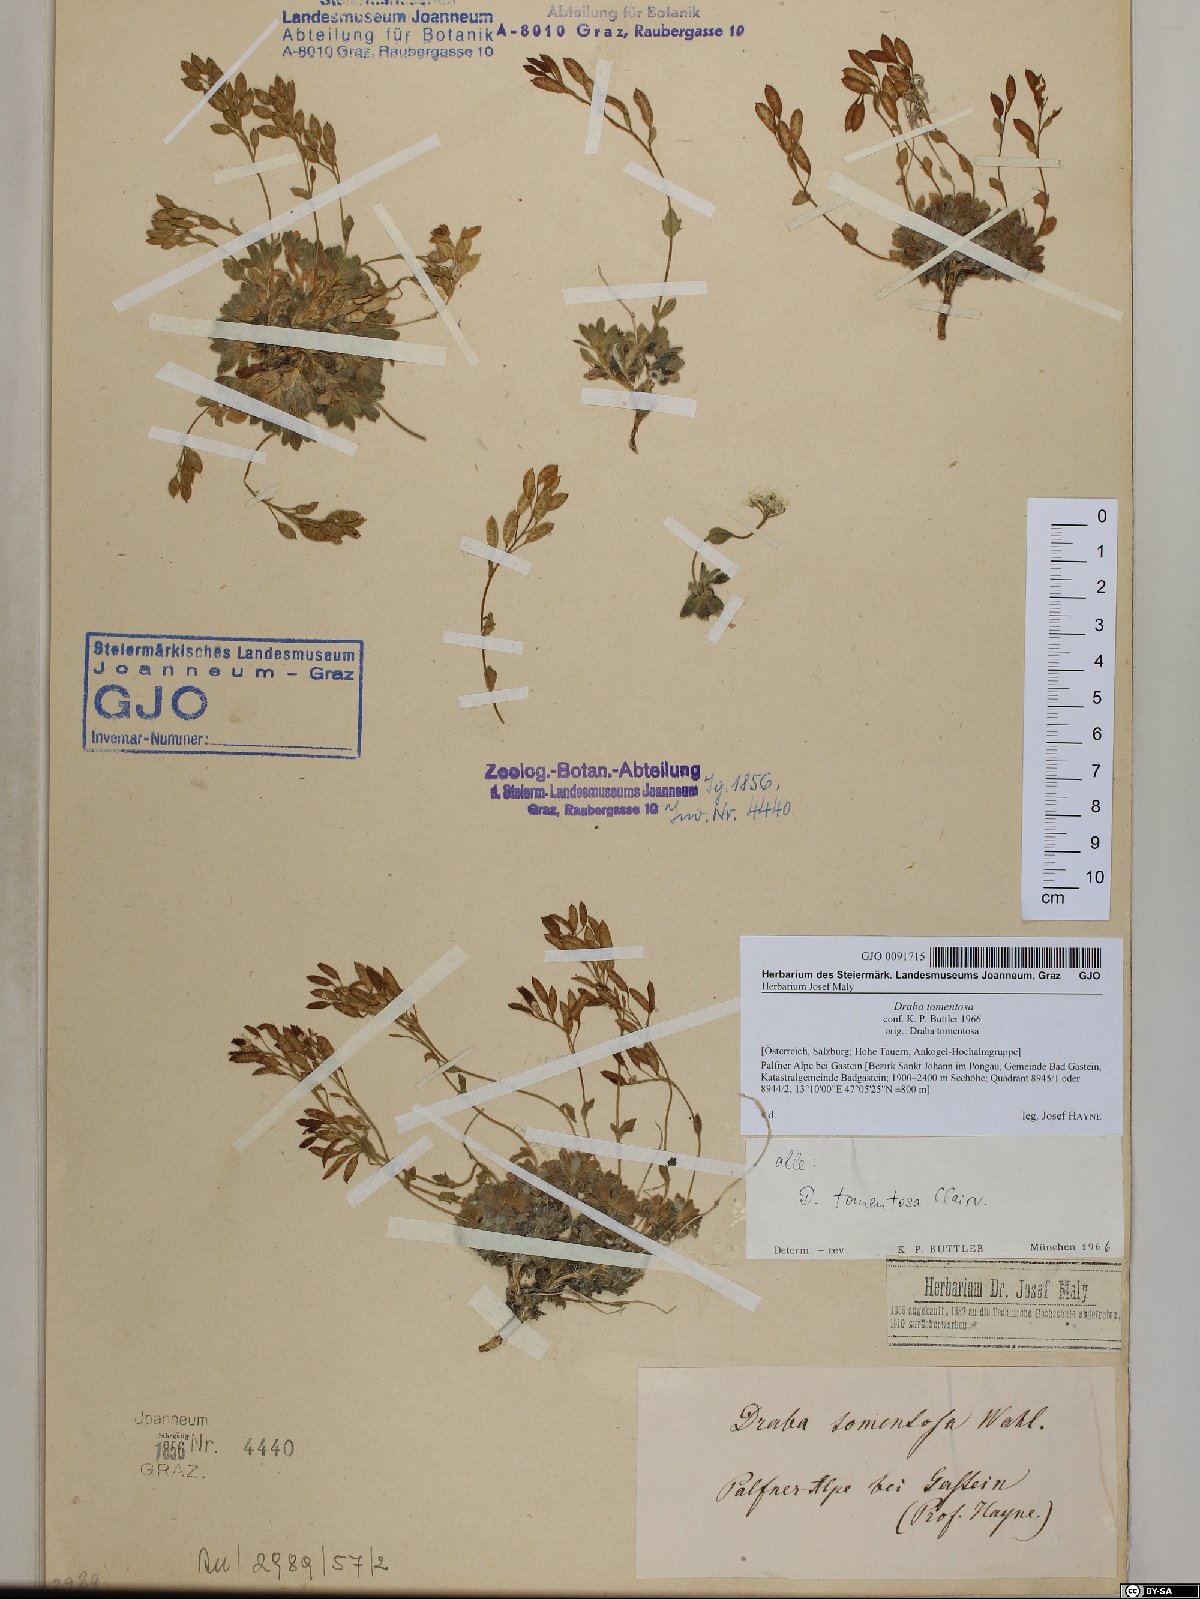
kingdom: Plantae
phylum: Tracheophyta
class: Magnoliopsida
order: Brassicales
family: Brassicaceae
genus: Draba
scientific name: Draba tomentosa
